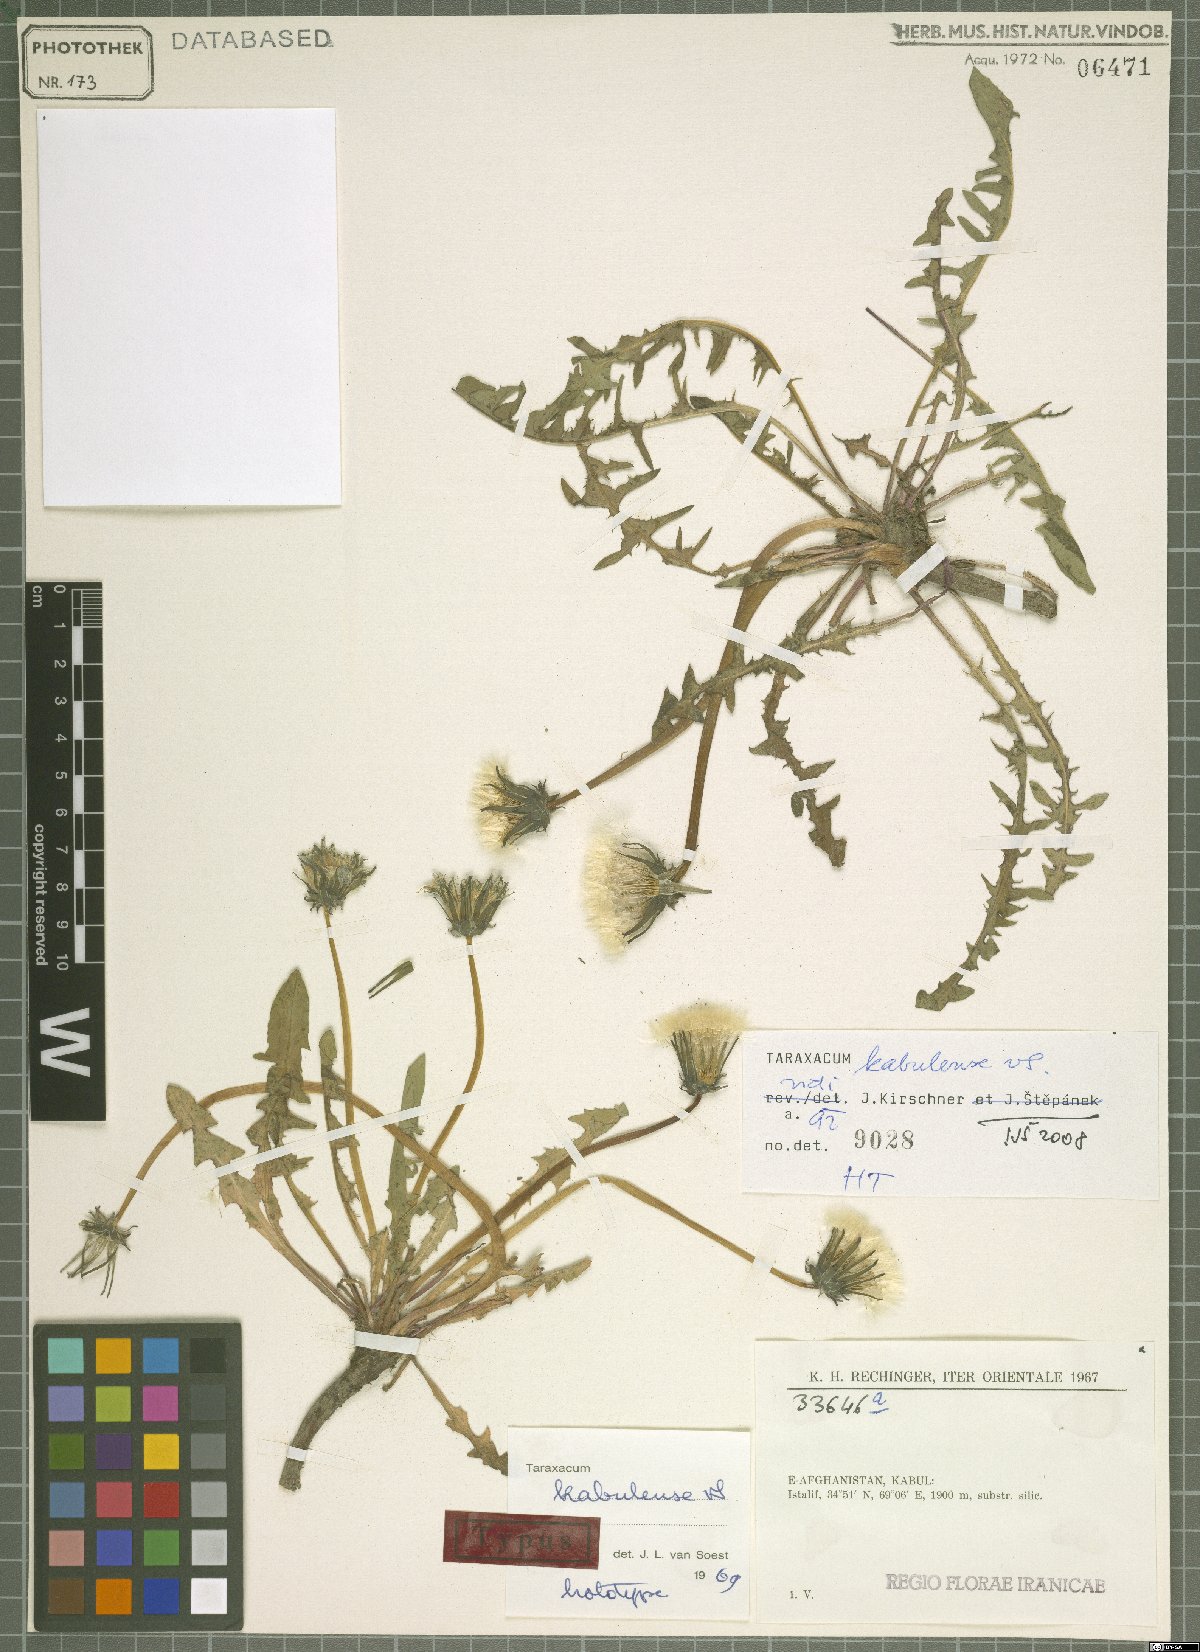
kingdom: Plantae
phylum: Tracheophyta
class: Magnoliopsida
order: Asterales
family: Asteraceae
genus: Taraxacum
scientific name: Taraxacum kabulense
